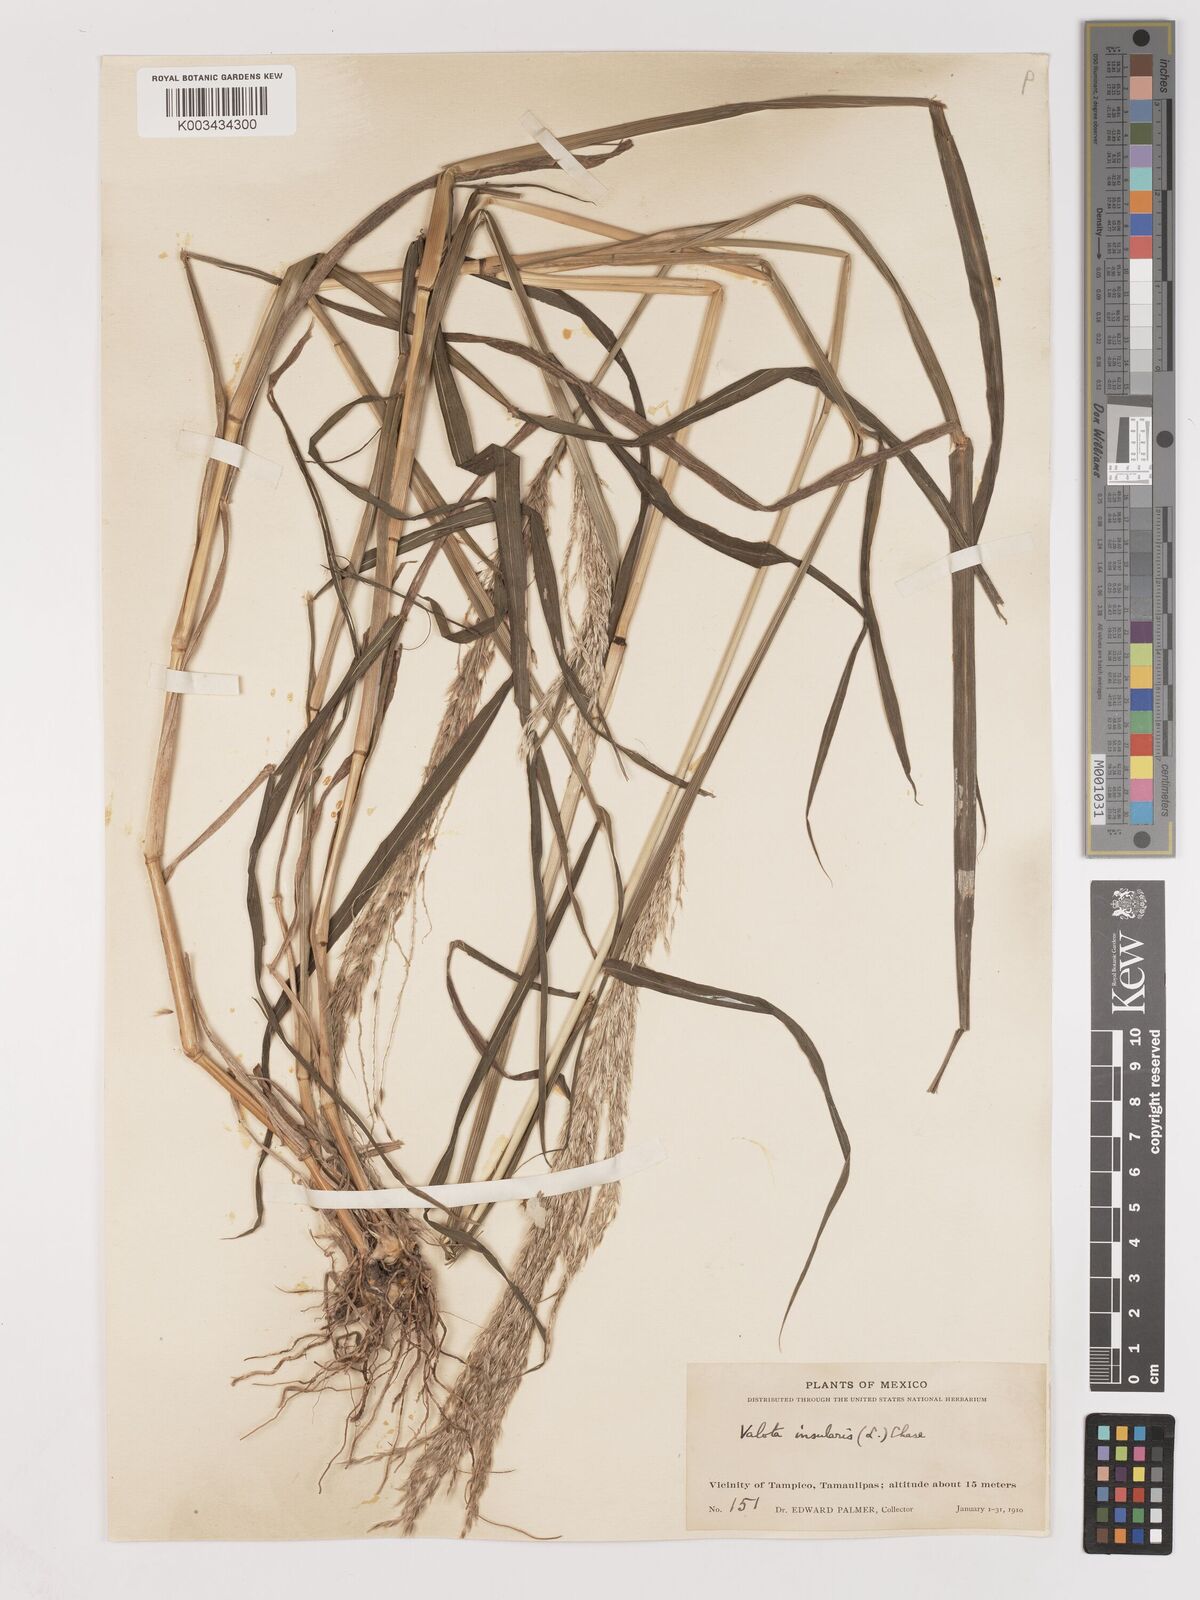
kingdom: Plantae
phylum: Tracheophyta
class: Liliopsida
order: Poales
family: Poaceae
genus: Digitaria
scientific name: Digitaria insularis
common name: Sourgrass
